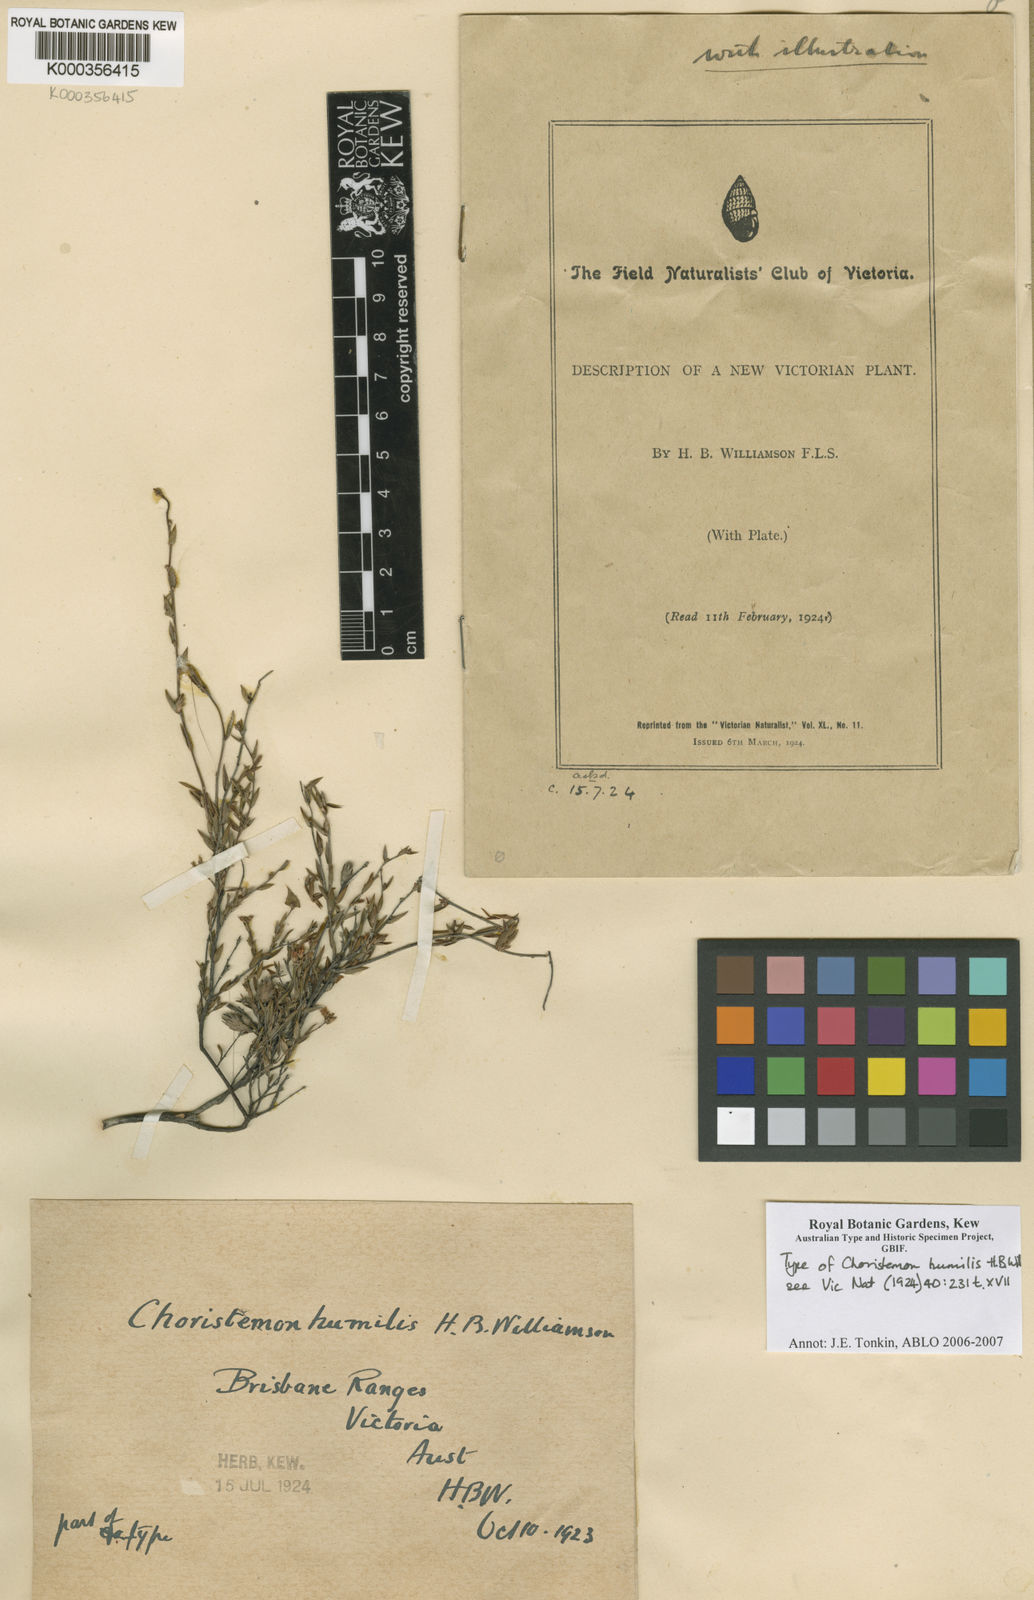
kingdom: Plantae
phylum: Tracheophyta
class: Magnoliopsida
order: Ericales
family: Ericaceae
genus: Leucopogon
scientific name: Leucopogon virgatus
